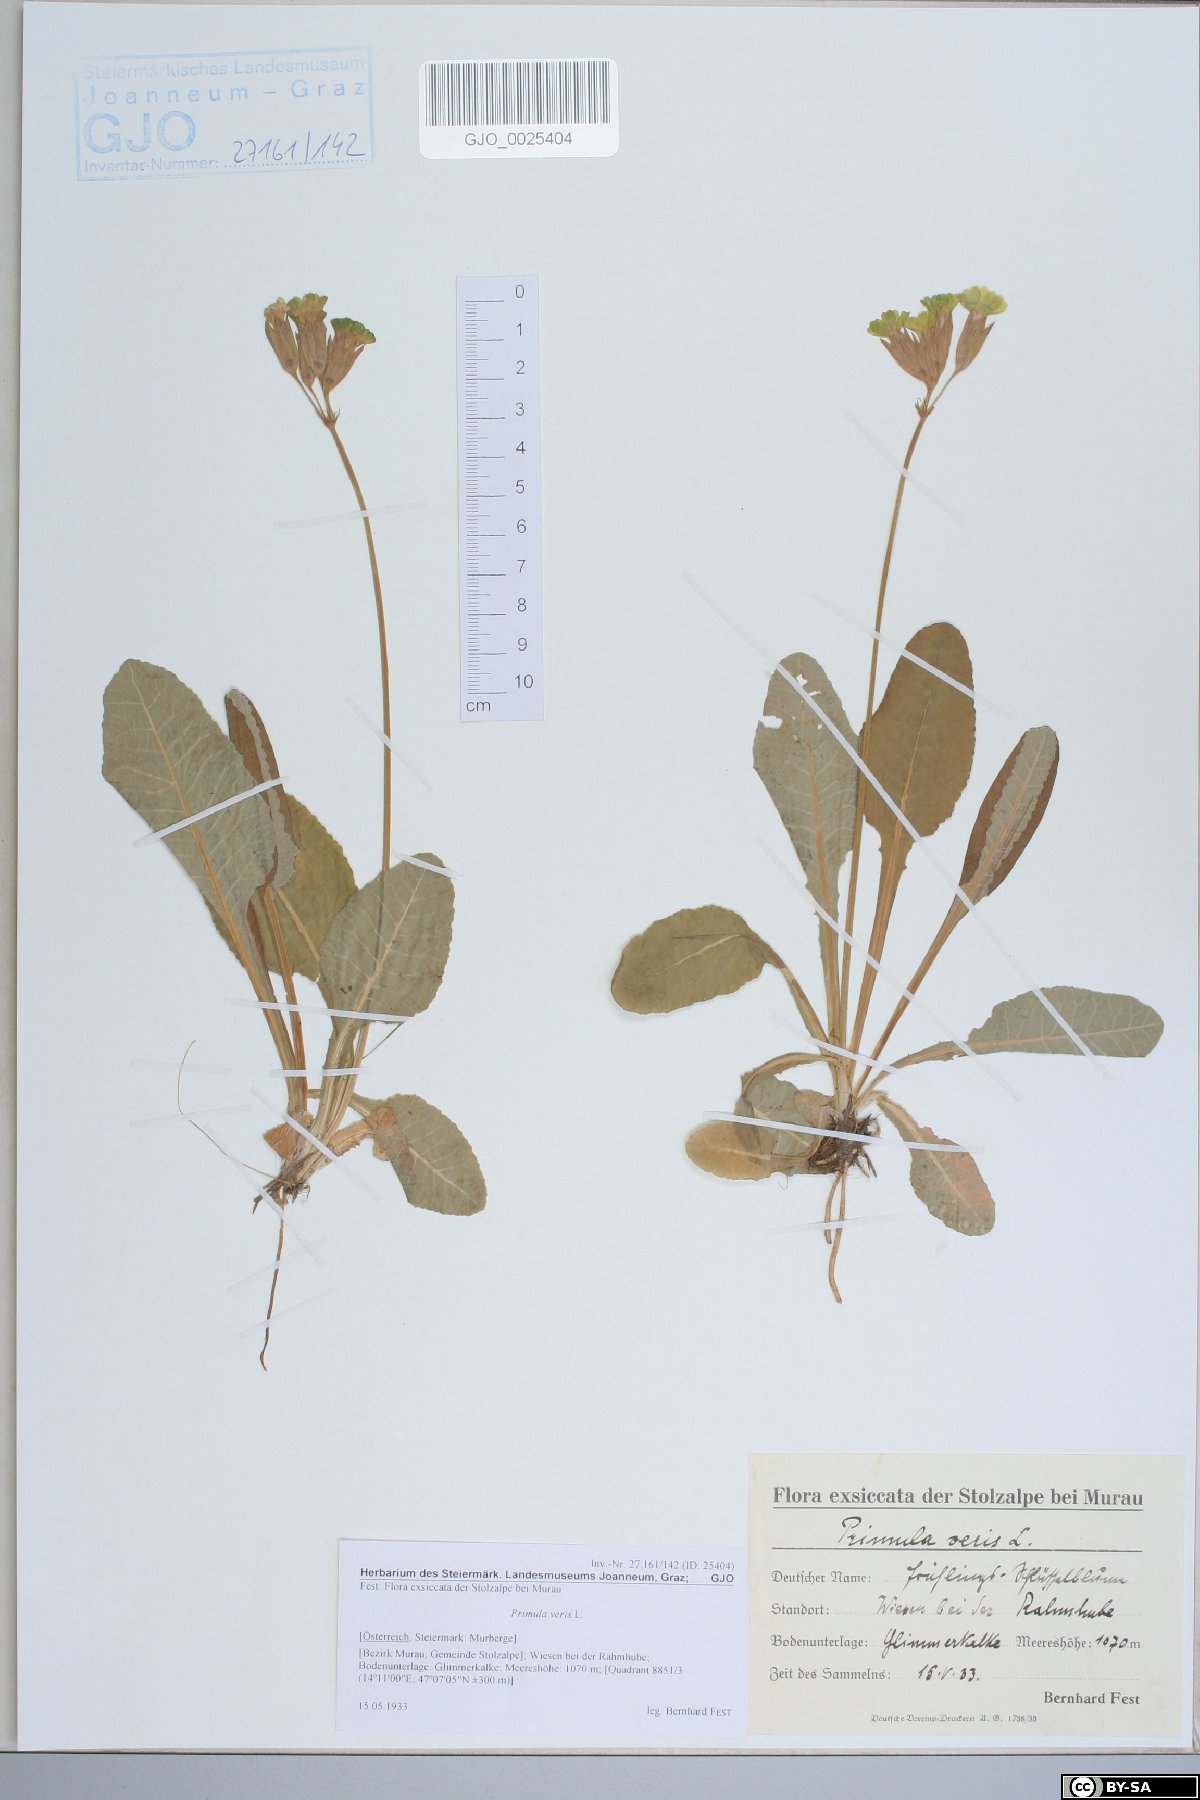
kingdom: Plantae
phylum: Tracheophyta
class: Magnoliopsida
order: Ericales
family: Primulaceae
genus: Primula
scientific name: Primula veris
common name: Cowslip
